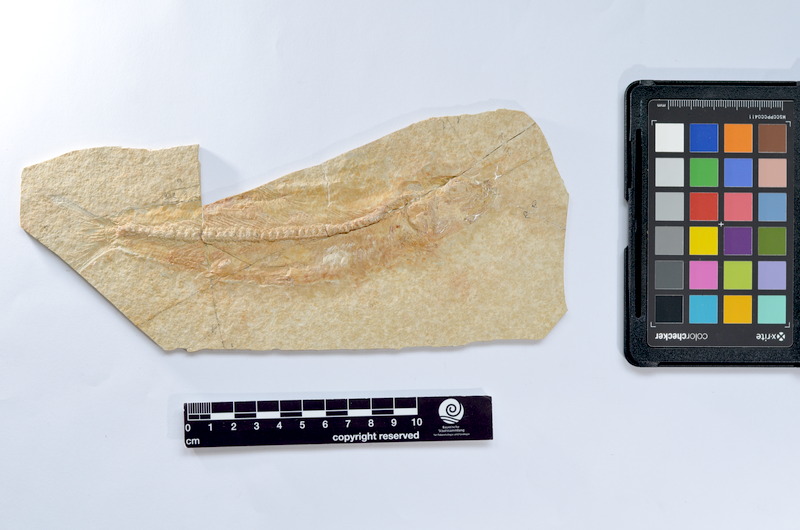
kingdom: Animalia
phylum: Chordata
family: Ascalaboidae
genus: Tharsis
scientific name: Tharsis dubius
